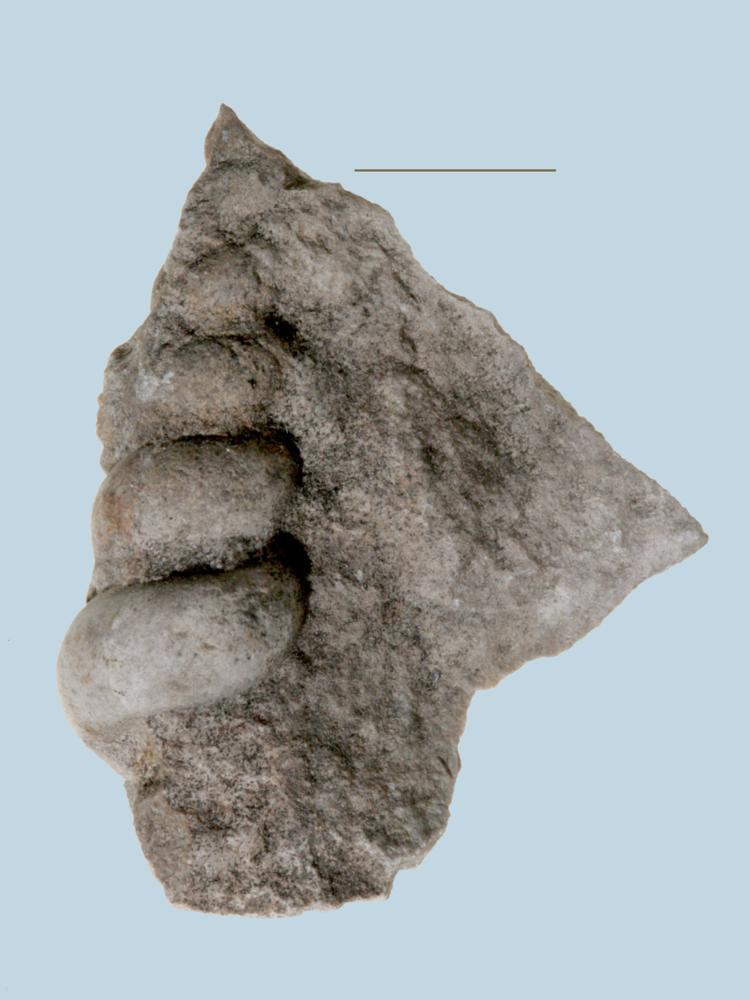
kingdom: Animalia
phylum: Mollusca
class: Gastropoda
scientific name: Gastropoda
